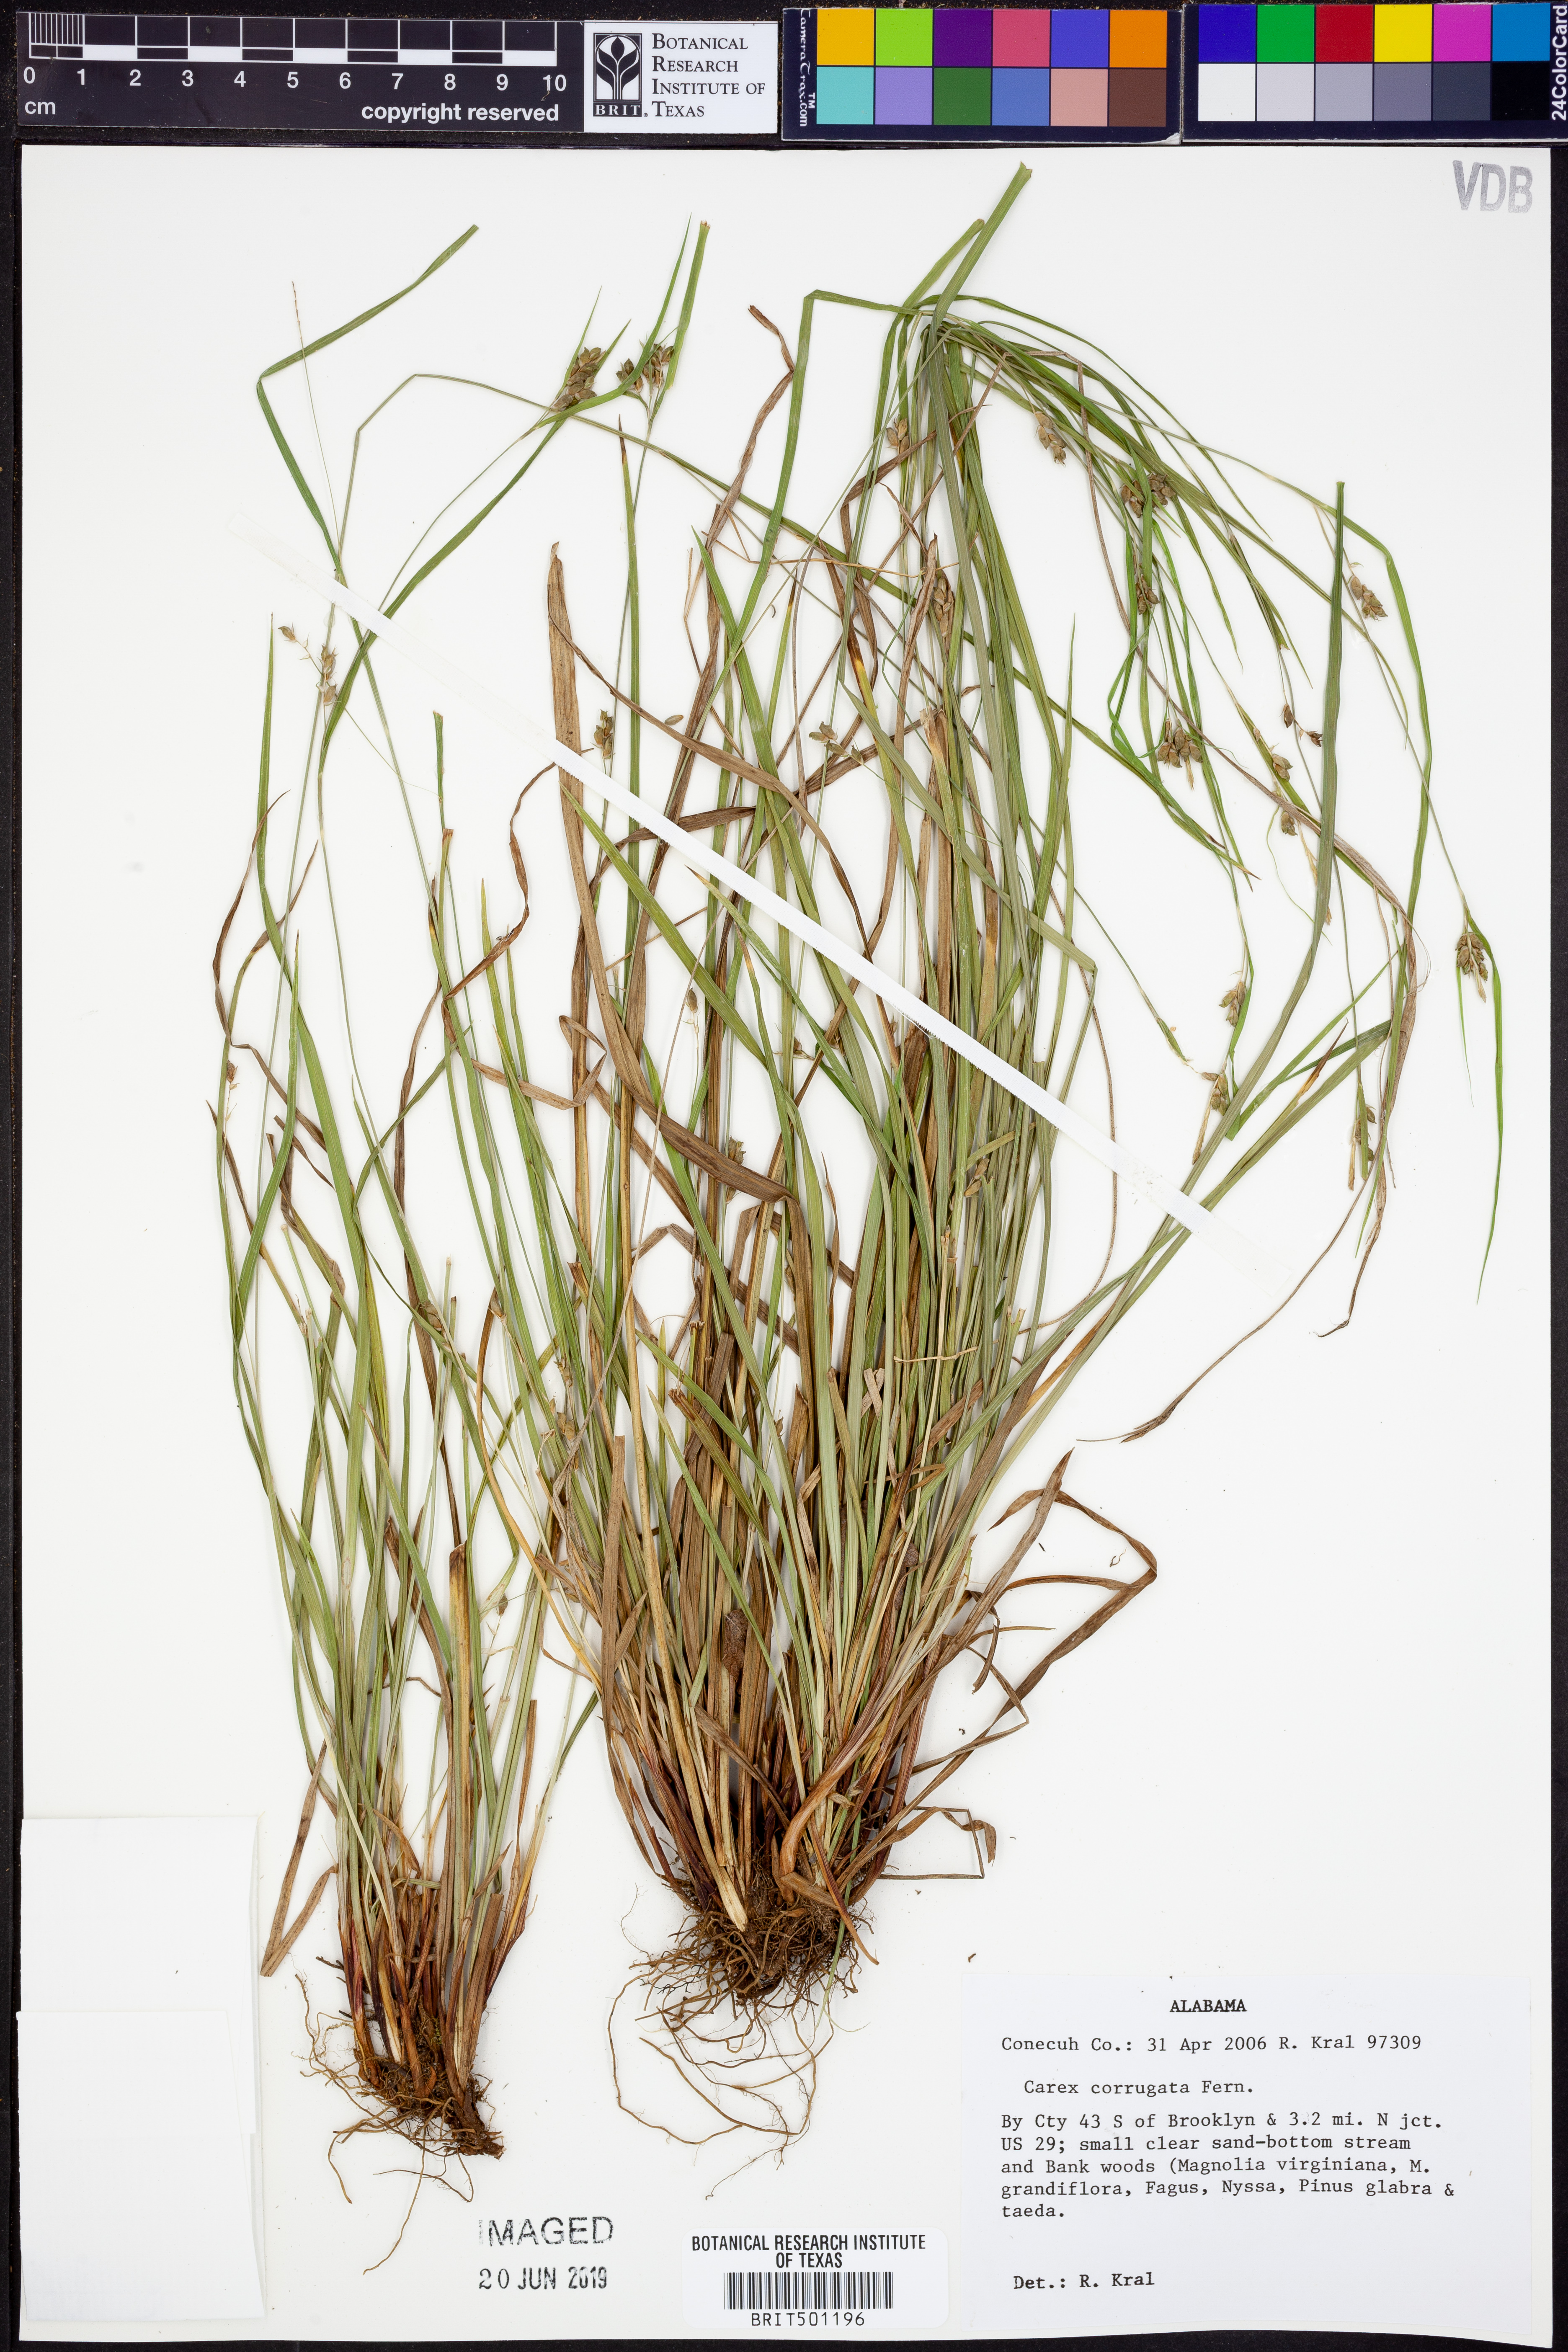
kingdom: Plantae
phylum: Tracheophyta
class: Liliopsida
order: Poales
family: Cyperaceae
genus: Carex
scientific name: Carex corrugata
